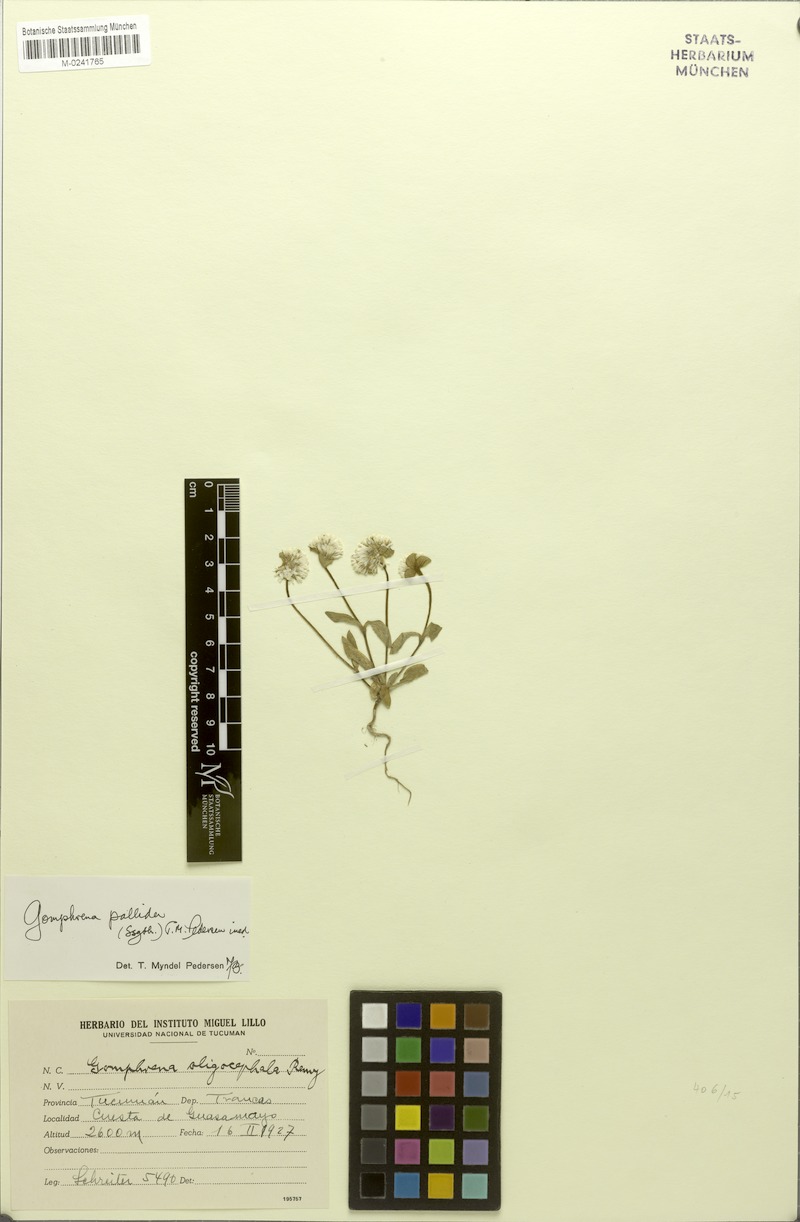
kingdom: Plantae
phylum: Tracheophyta
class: Magnoliopsida
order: Caryophyllales
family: Amaranthaceae
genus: Gomphrena
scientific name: Gomphrena pallida
